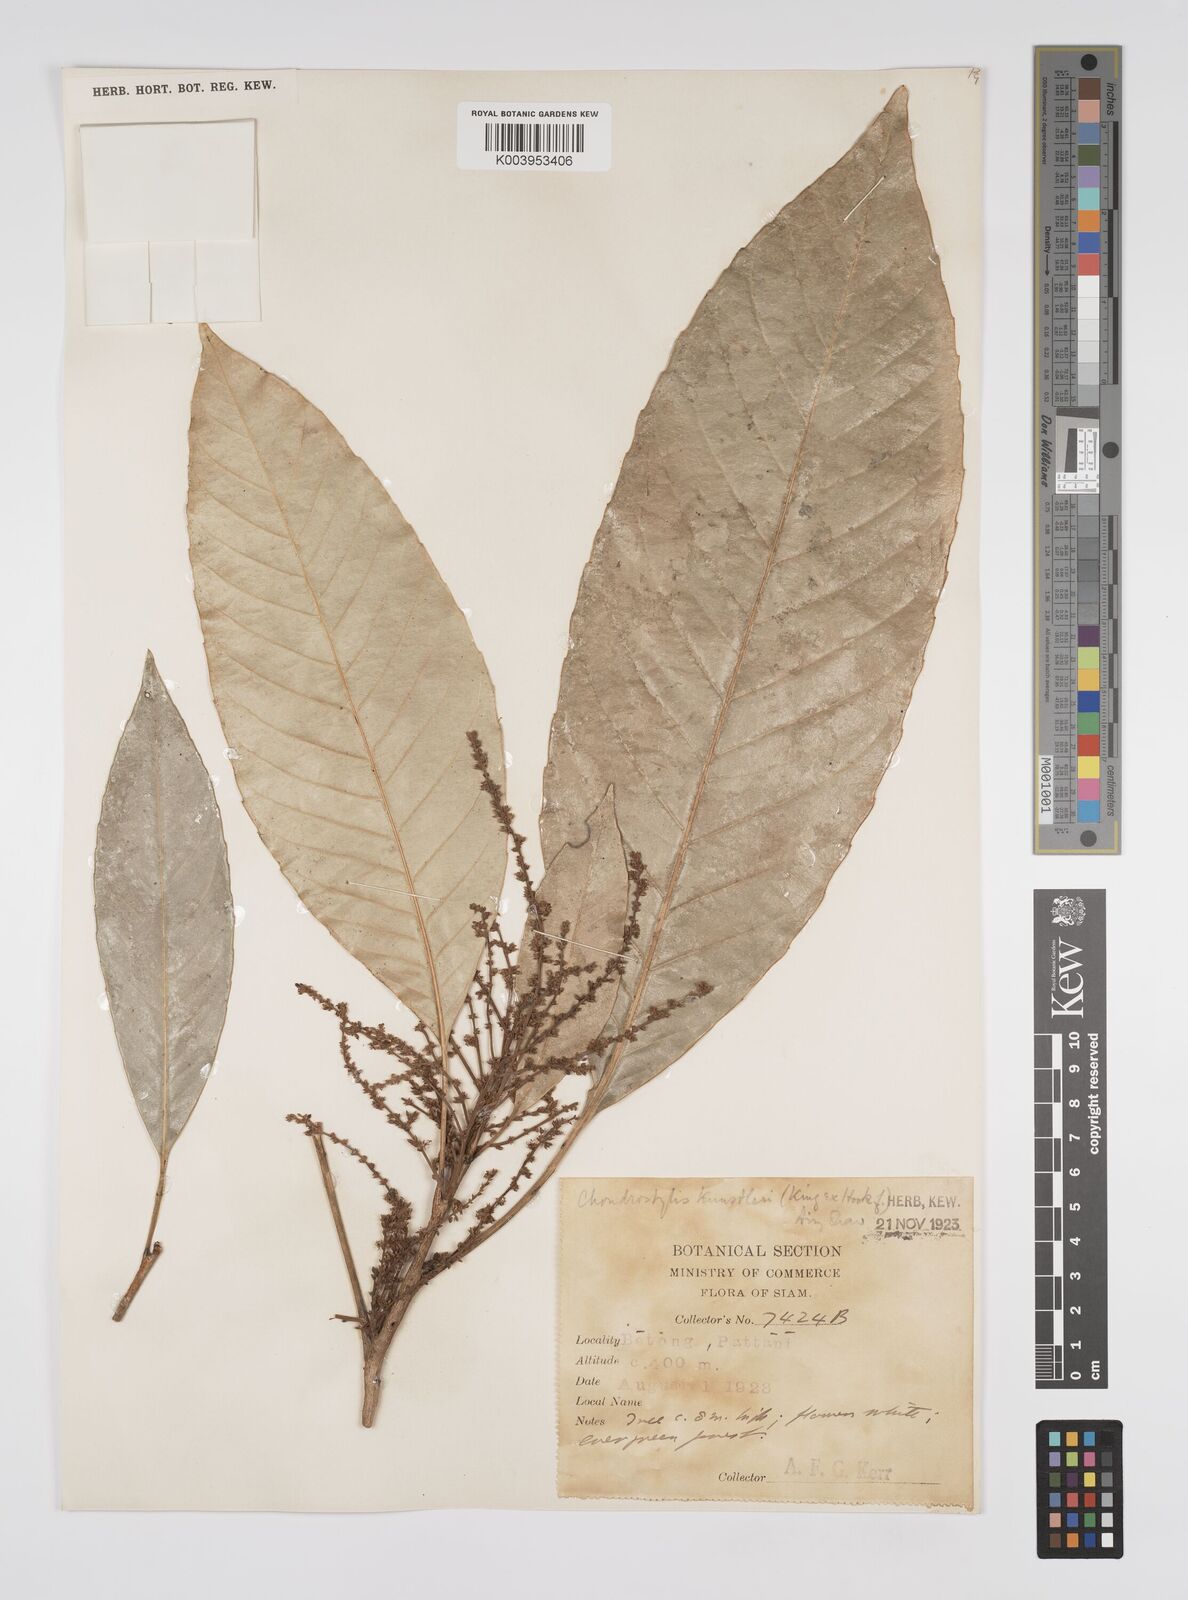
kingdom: Plantae
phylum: Tracheophyta
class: Magnoliopsida
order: Malpighiales
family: Euphorbiaceae
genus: Chondrostylis
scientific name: Chondrostylis kunstleri
